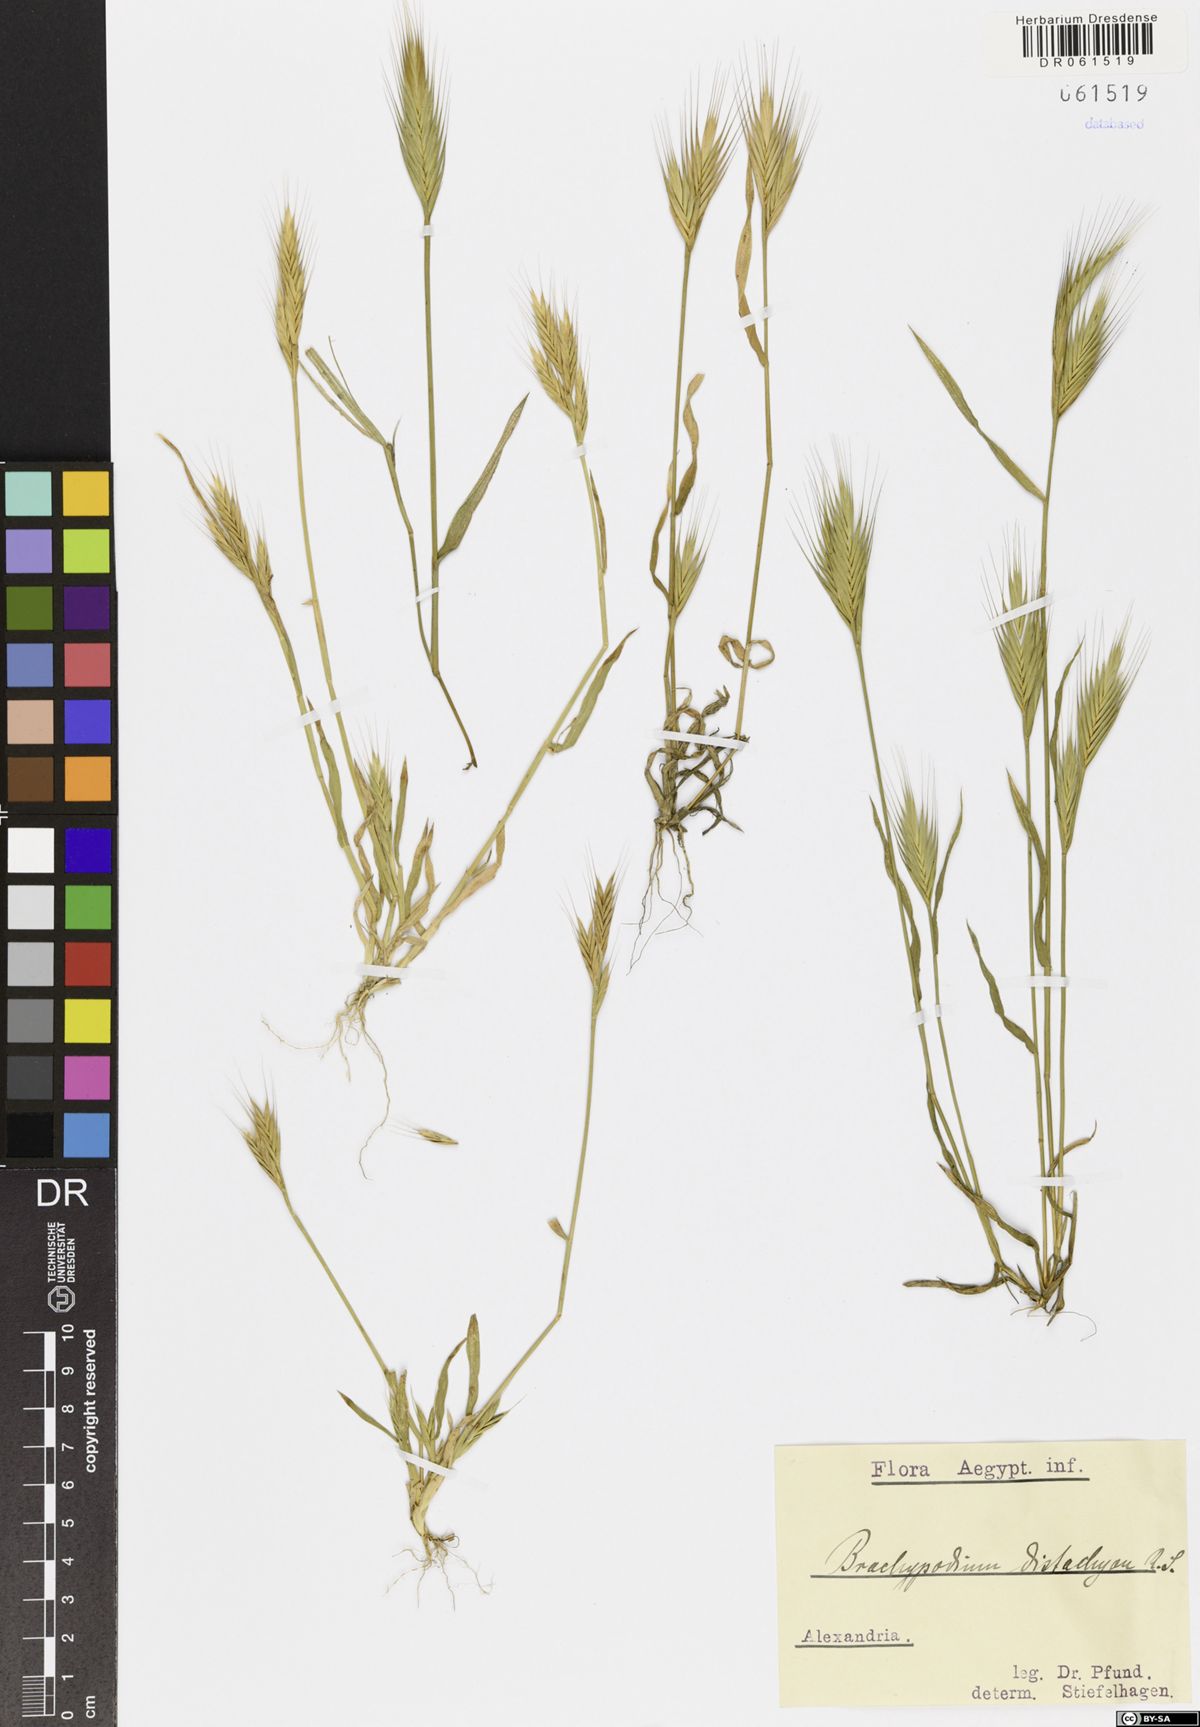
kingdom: Plantae
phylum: Tracheophyta
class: Liliopsida
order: Poales
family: Poaceae
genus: Brachypodium
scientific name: Brachypodium distachyon
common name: Stiff brome
